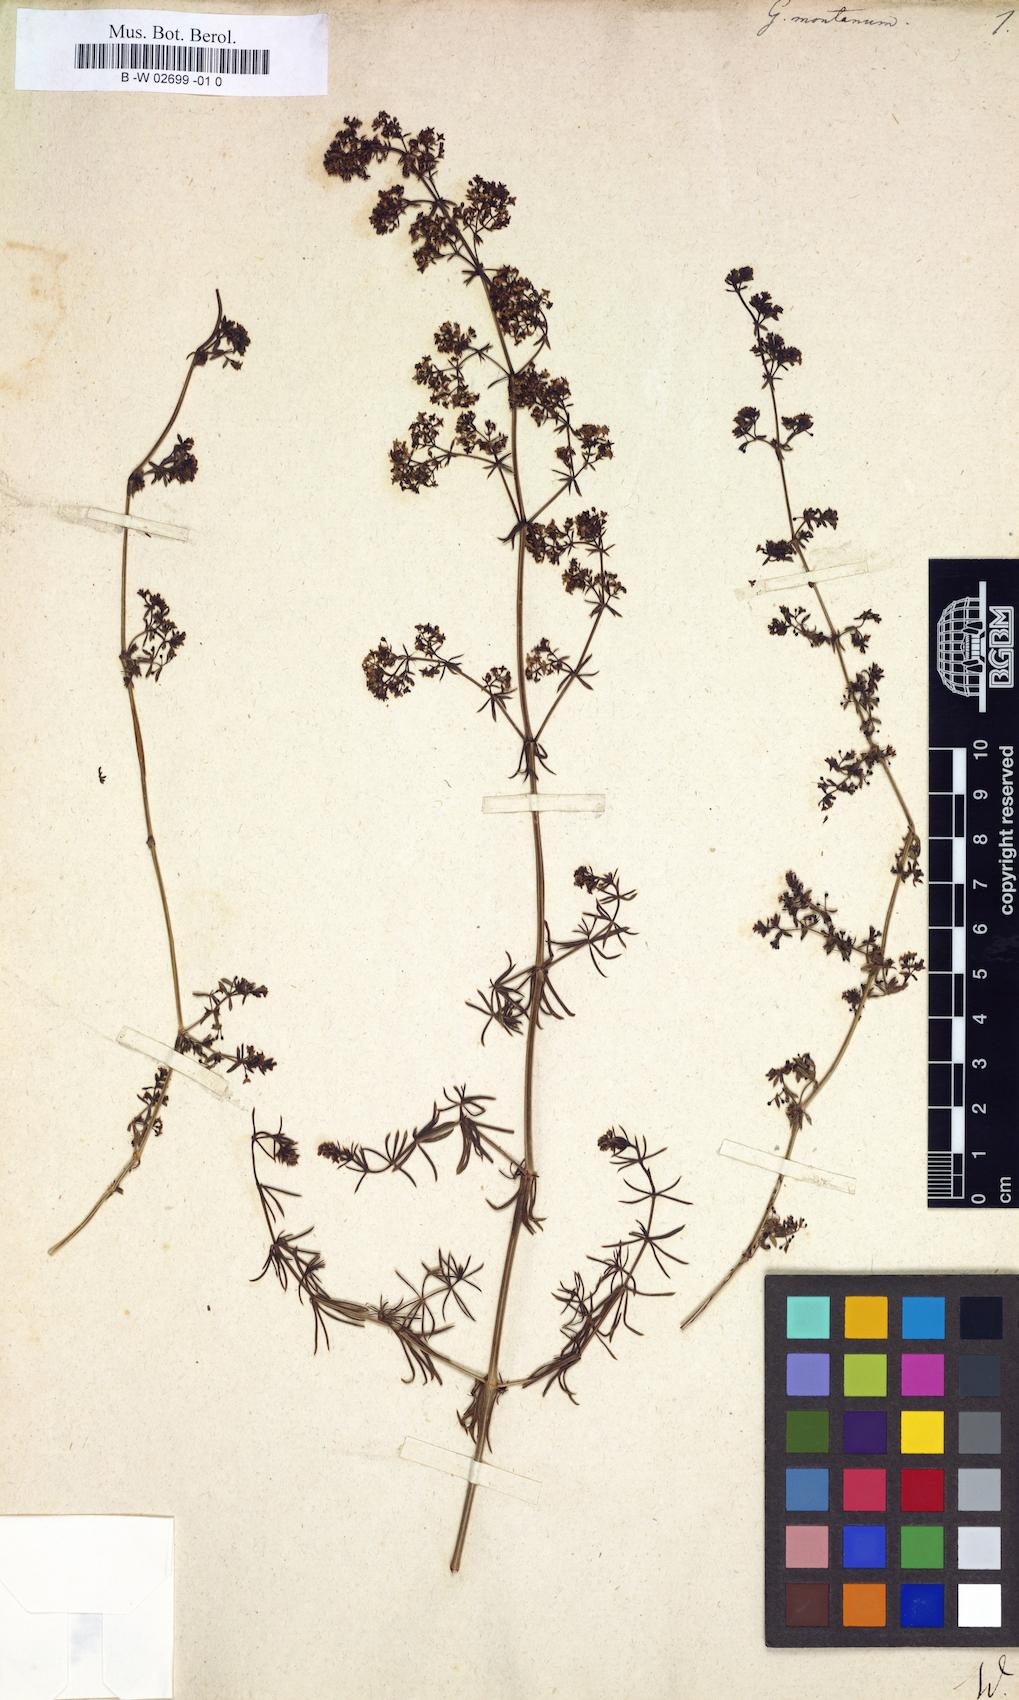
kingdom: Plantae
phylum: Tracheophyta
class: Magnoliopsida
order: Gentianales
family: Rubiaceae
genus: Galium
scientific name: Galium
